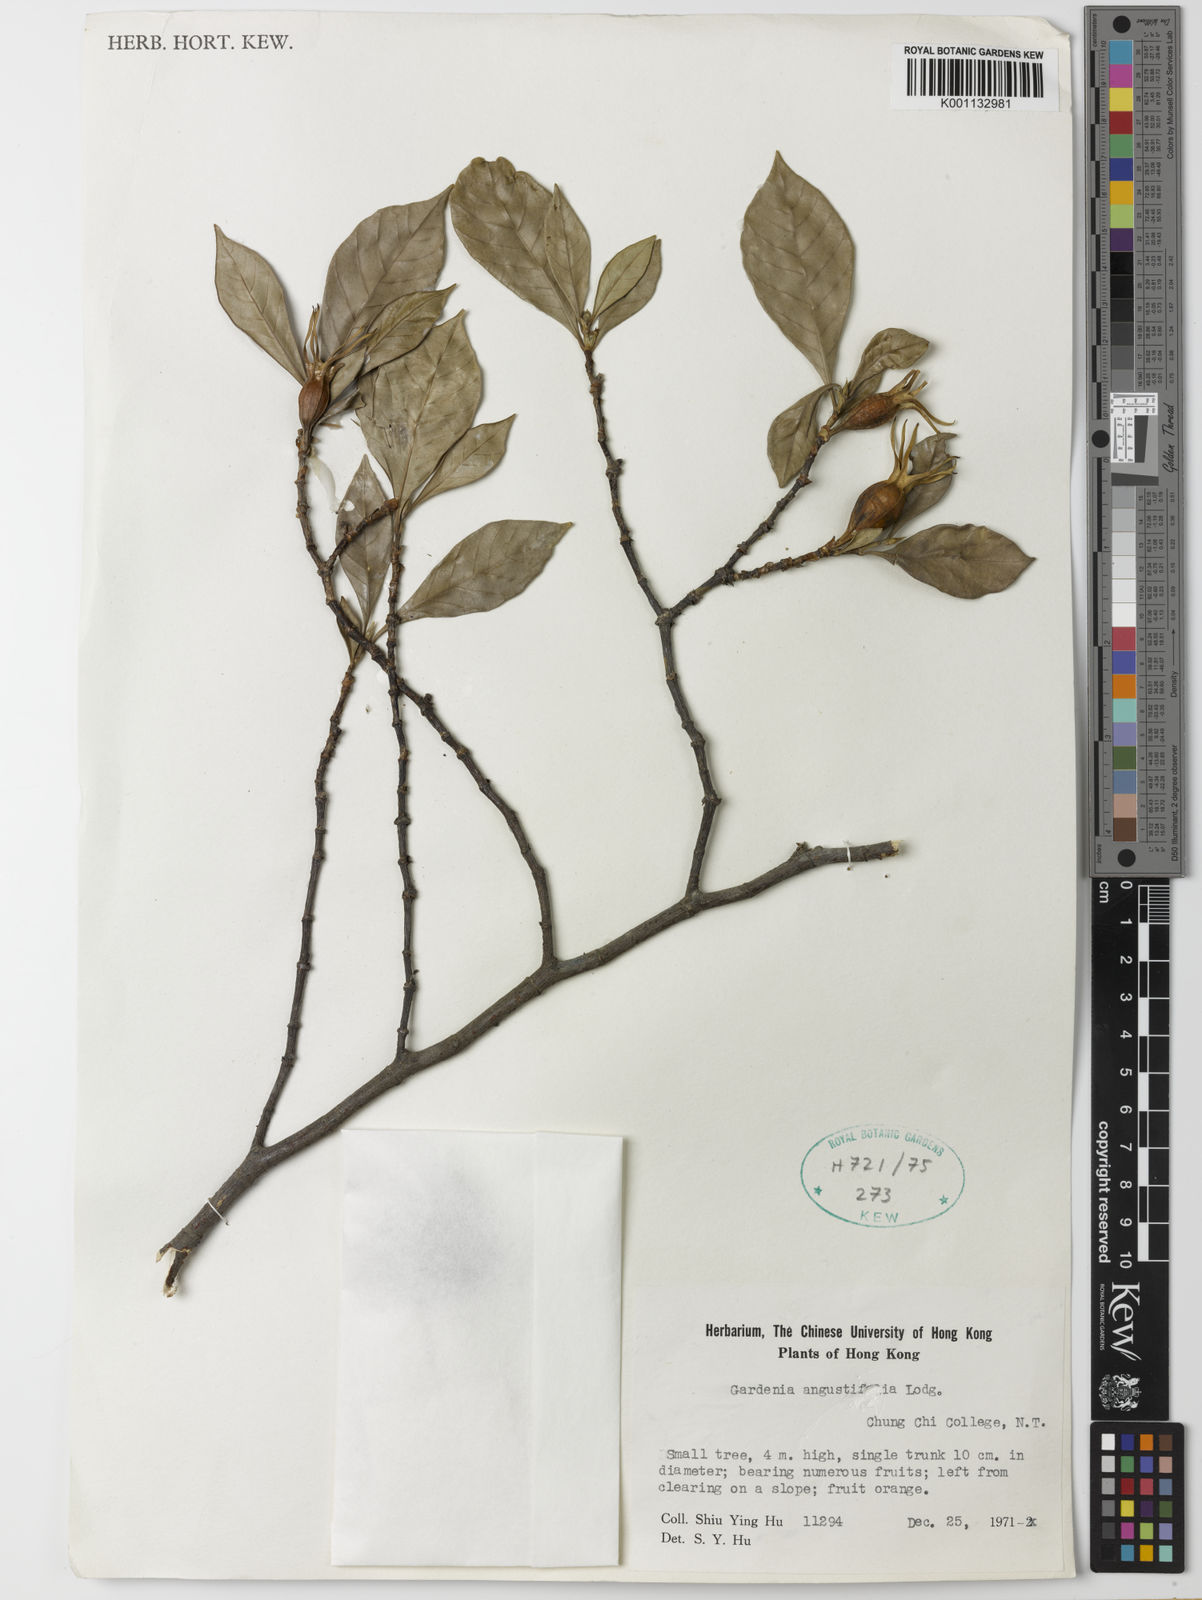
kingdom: Plantae
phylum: Tracheophyta
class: Magnoliopsida
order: Gentianales
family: Rubiaceae
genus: Gardenia
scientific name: Gardenia jasminoides
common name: Cape-jasmine
